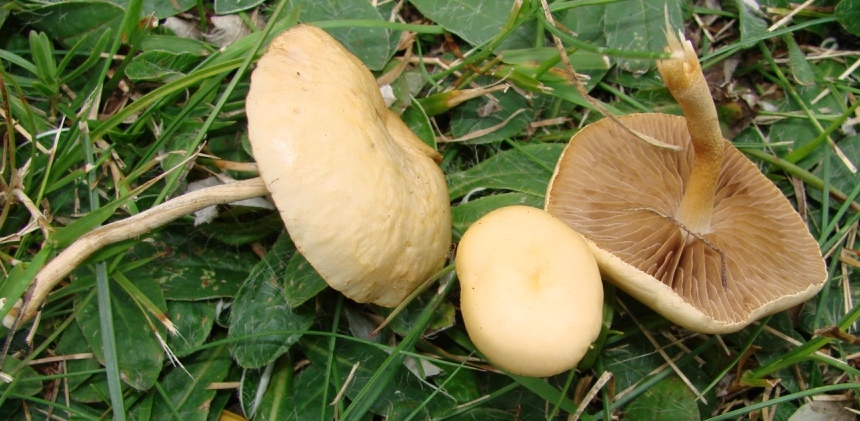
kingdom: Fungi
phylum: Basidiomycota
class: Agaricomycetes
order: Agaricales
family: Strophariaceae
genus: Agrocybe
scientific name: Agrocybe pediades
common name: almindelig agerhat
